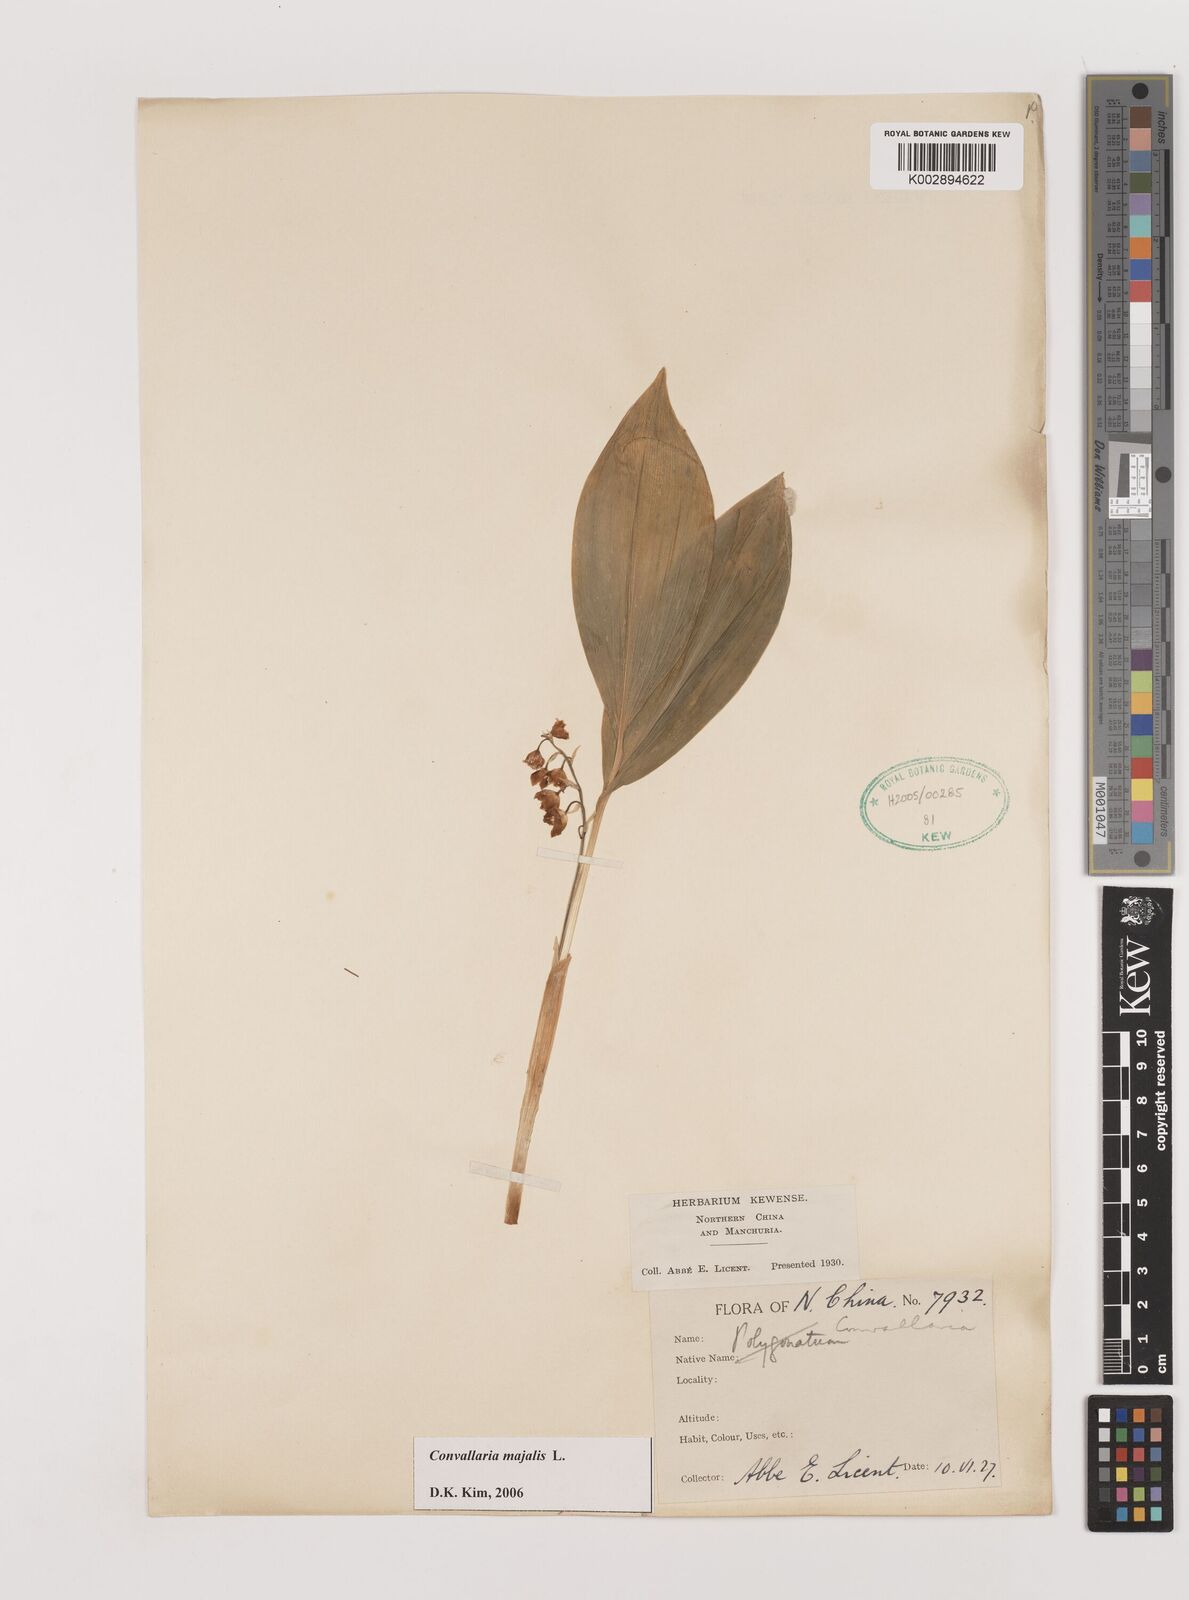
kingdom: Plantae
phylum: Tracheophyta
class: Liliopsida
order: Asparagales
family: Asparagaceae
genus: Ophiopogon
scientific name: Ophiopogon
